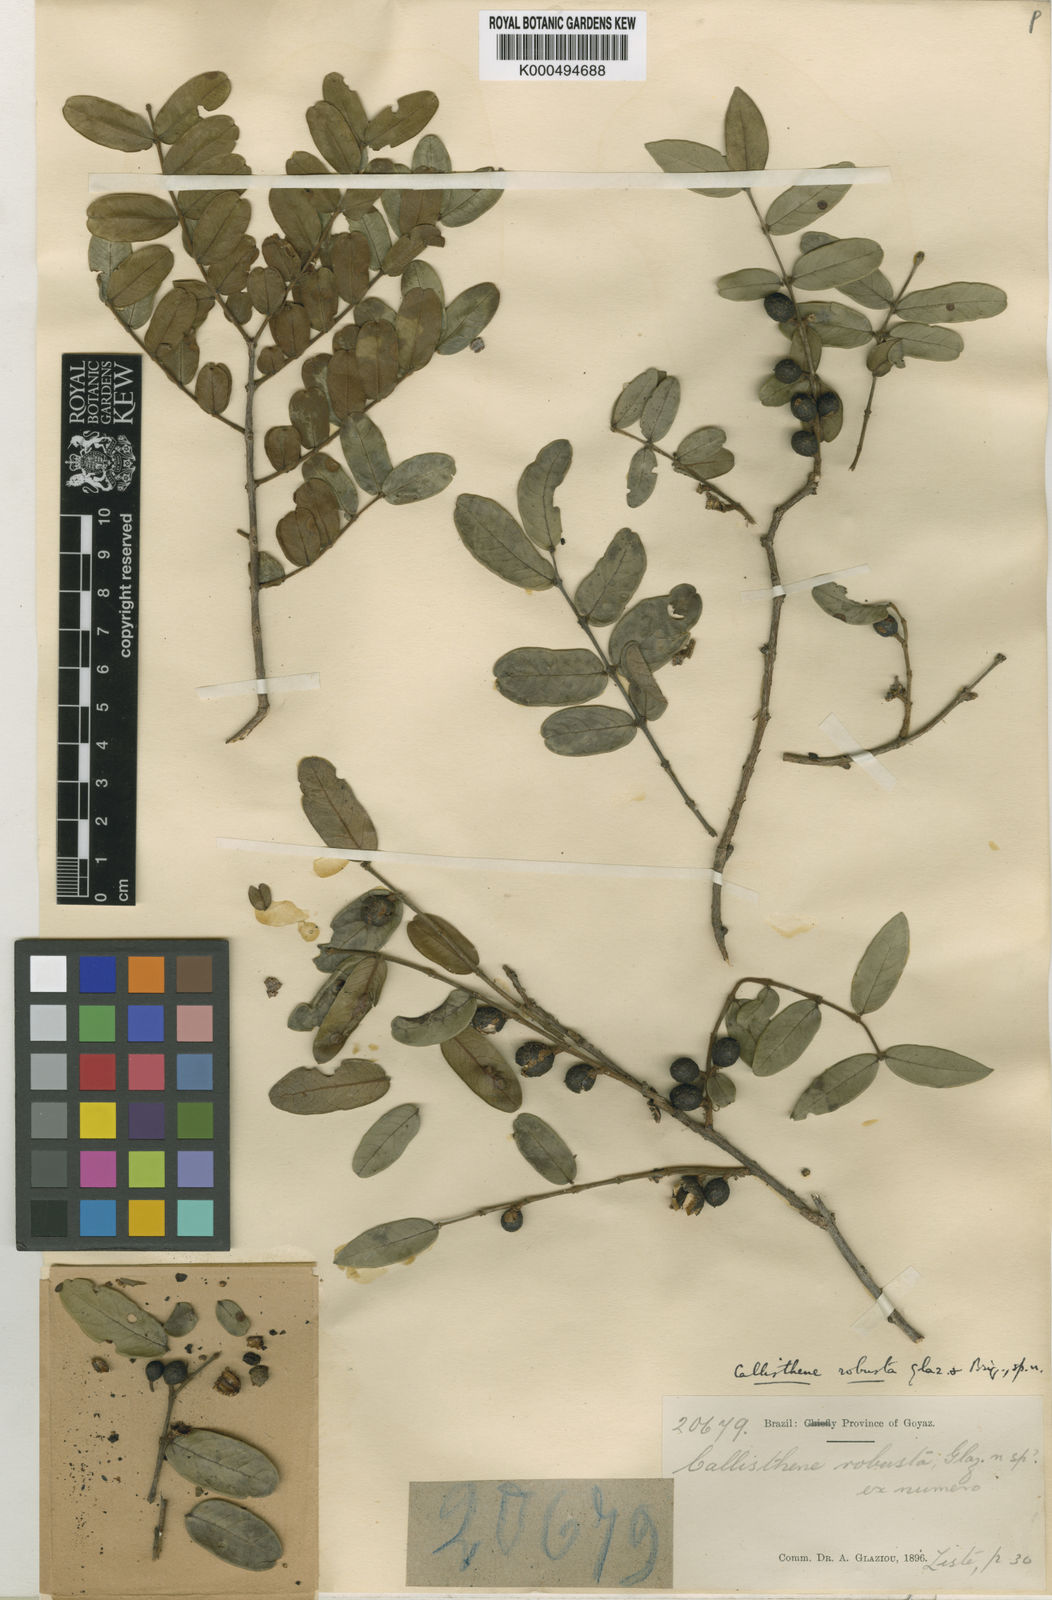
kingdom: Plantae
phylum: Tracheophyta
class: Magnoliopsida
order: Myrtales
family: Vochysiaceae
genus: Callisthene
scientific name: Callisthene major
